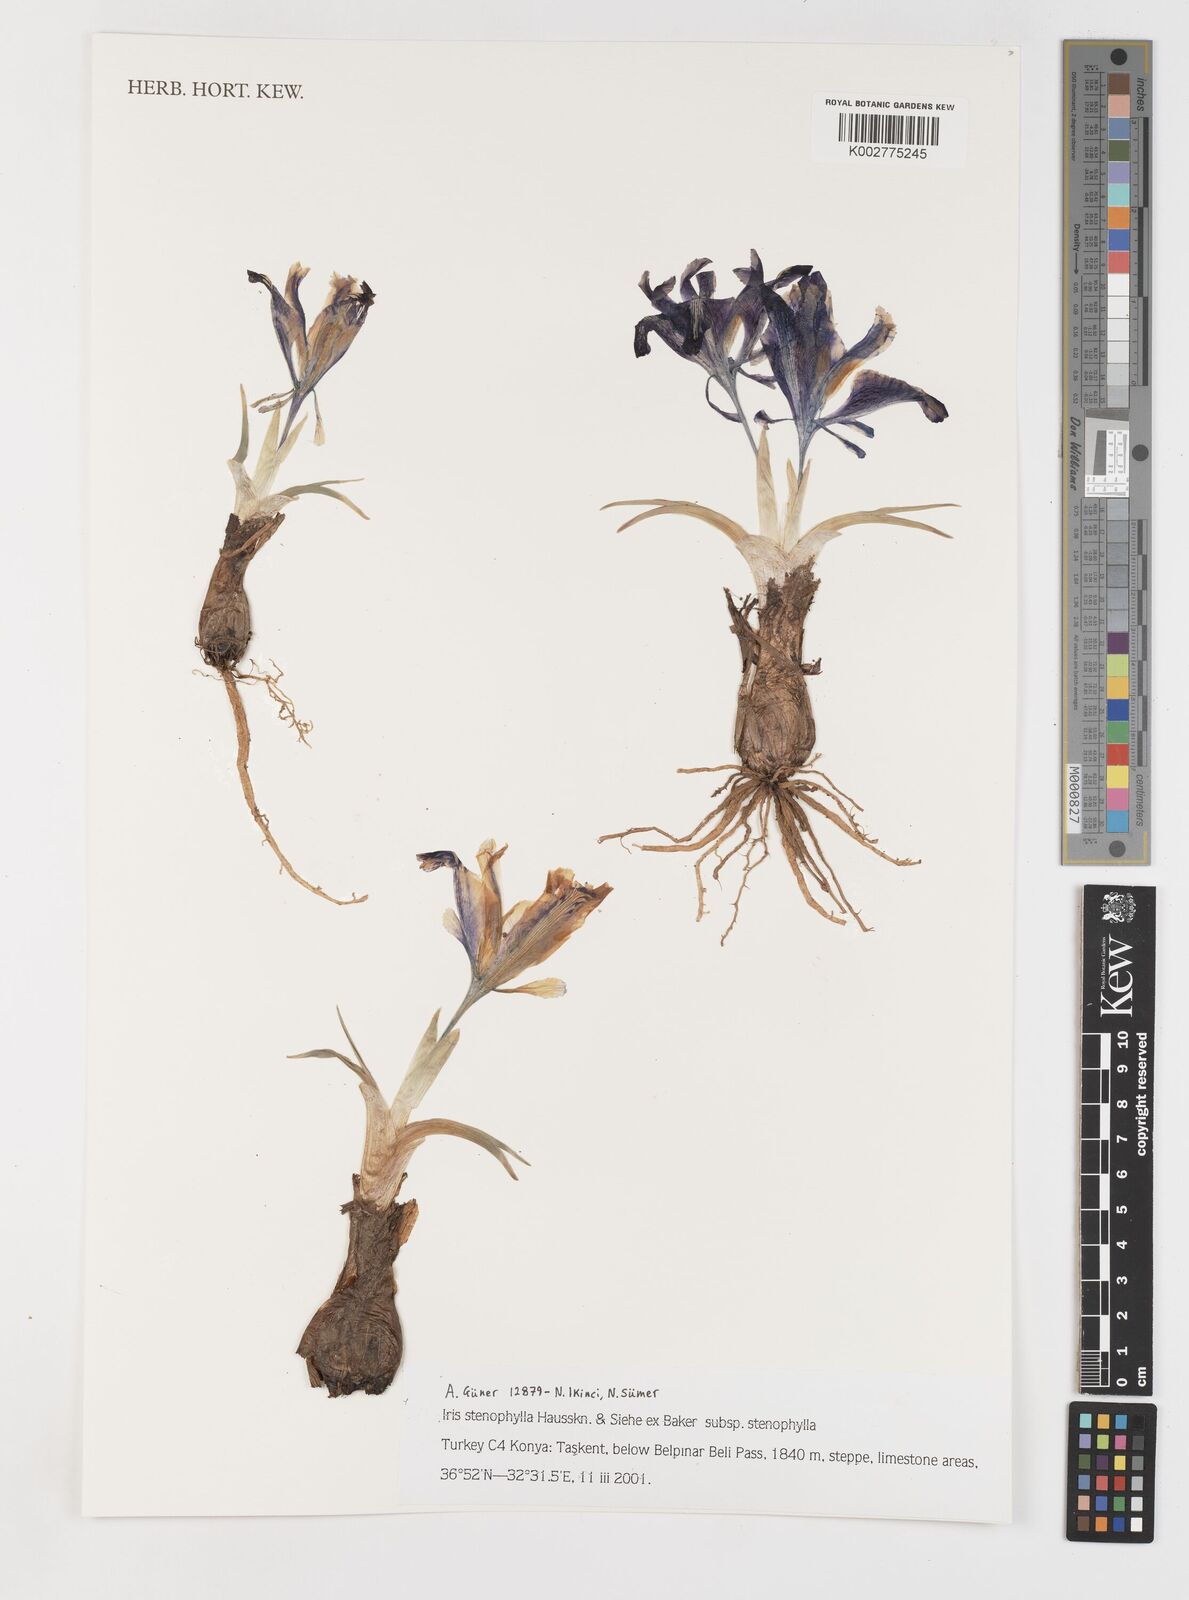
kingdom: Plantae
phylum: Tracheophyta
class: Liliopsida
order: Asparagales
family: Iridaceae
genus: Iris
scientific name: Iris stenophylla
